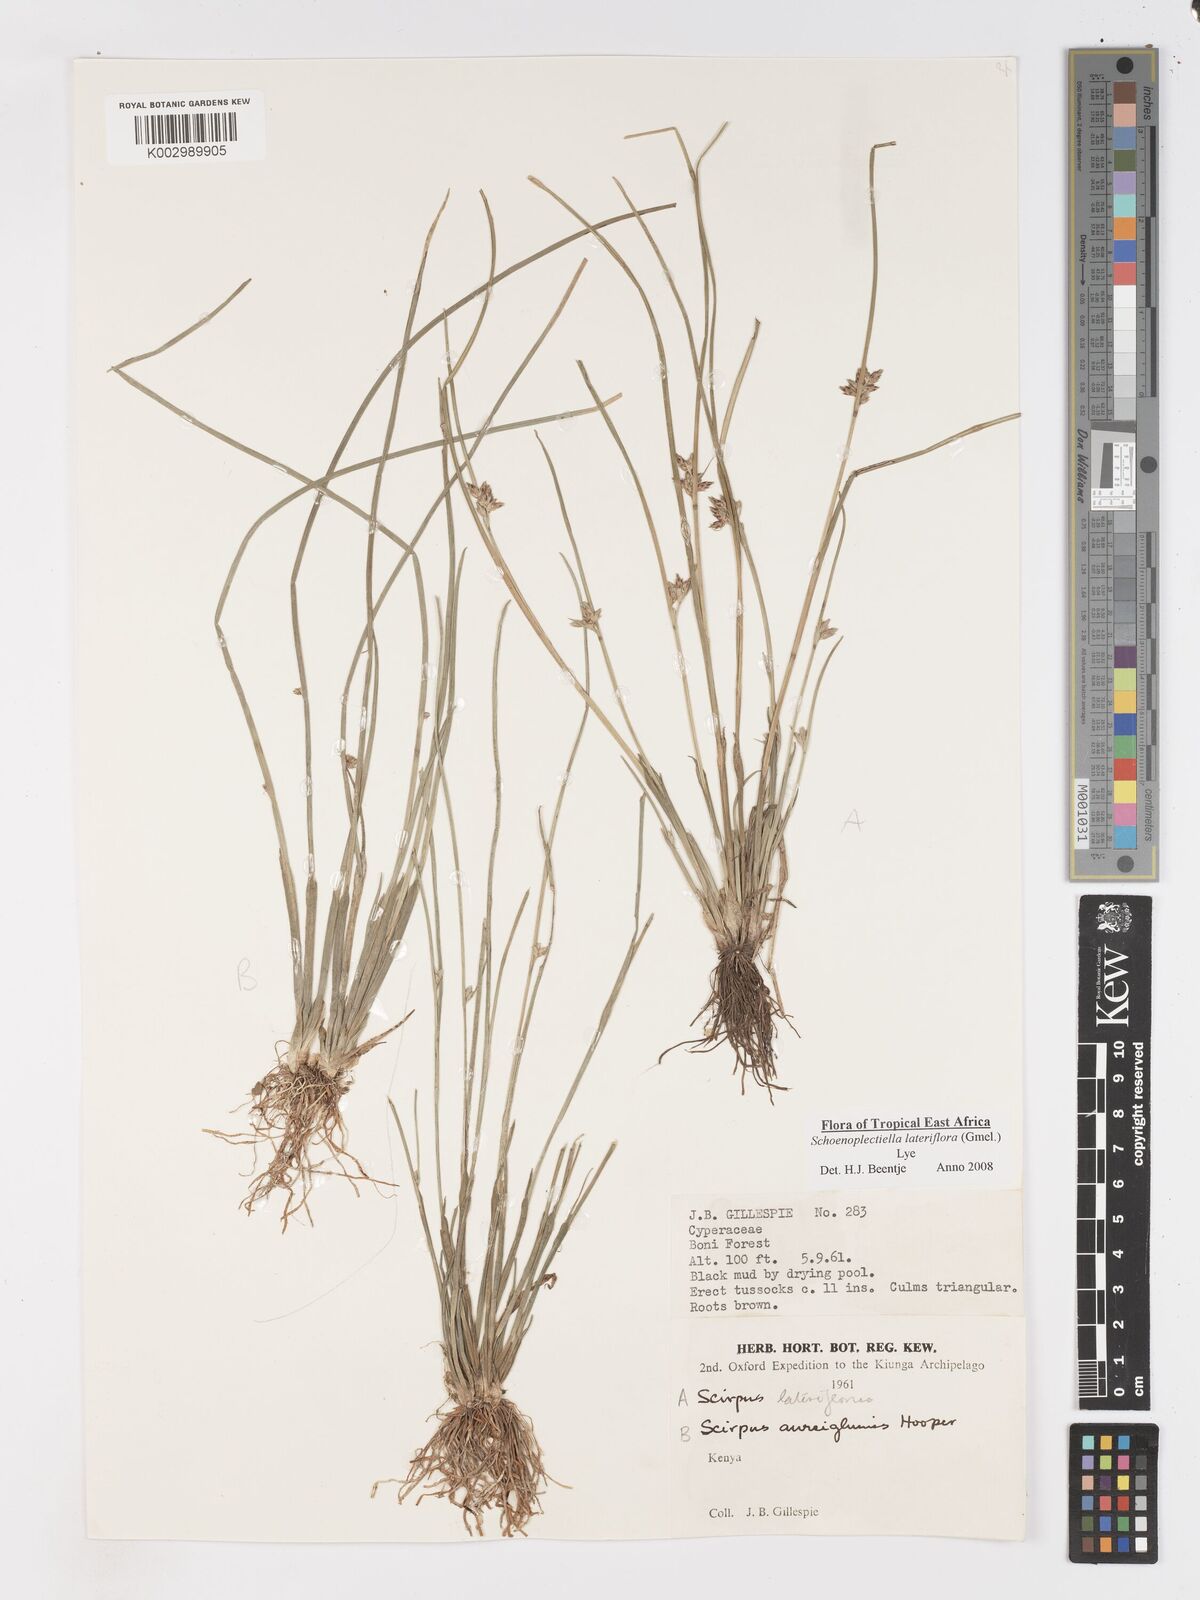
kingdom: Plantae
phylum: Tracheophyta
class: Liliopsida
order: Poales
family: Cyperaceae
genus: Schoenoplectiella
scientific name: Schoenoplectiella lateriflora
